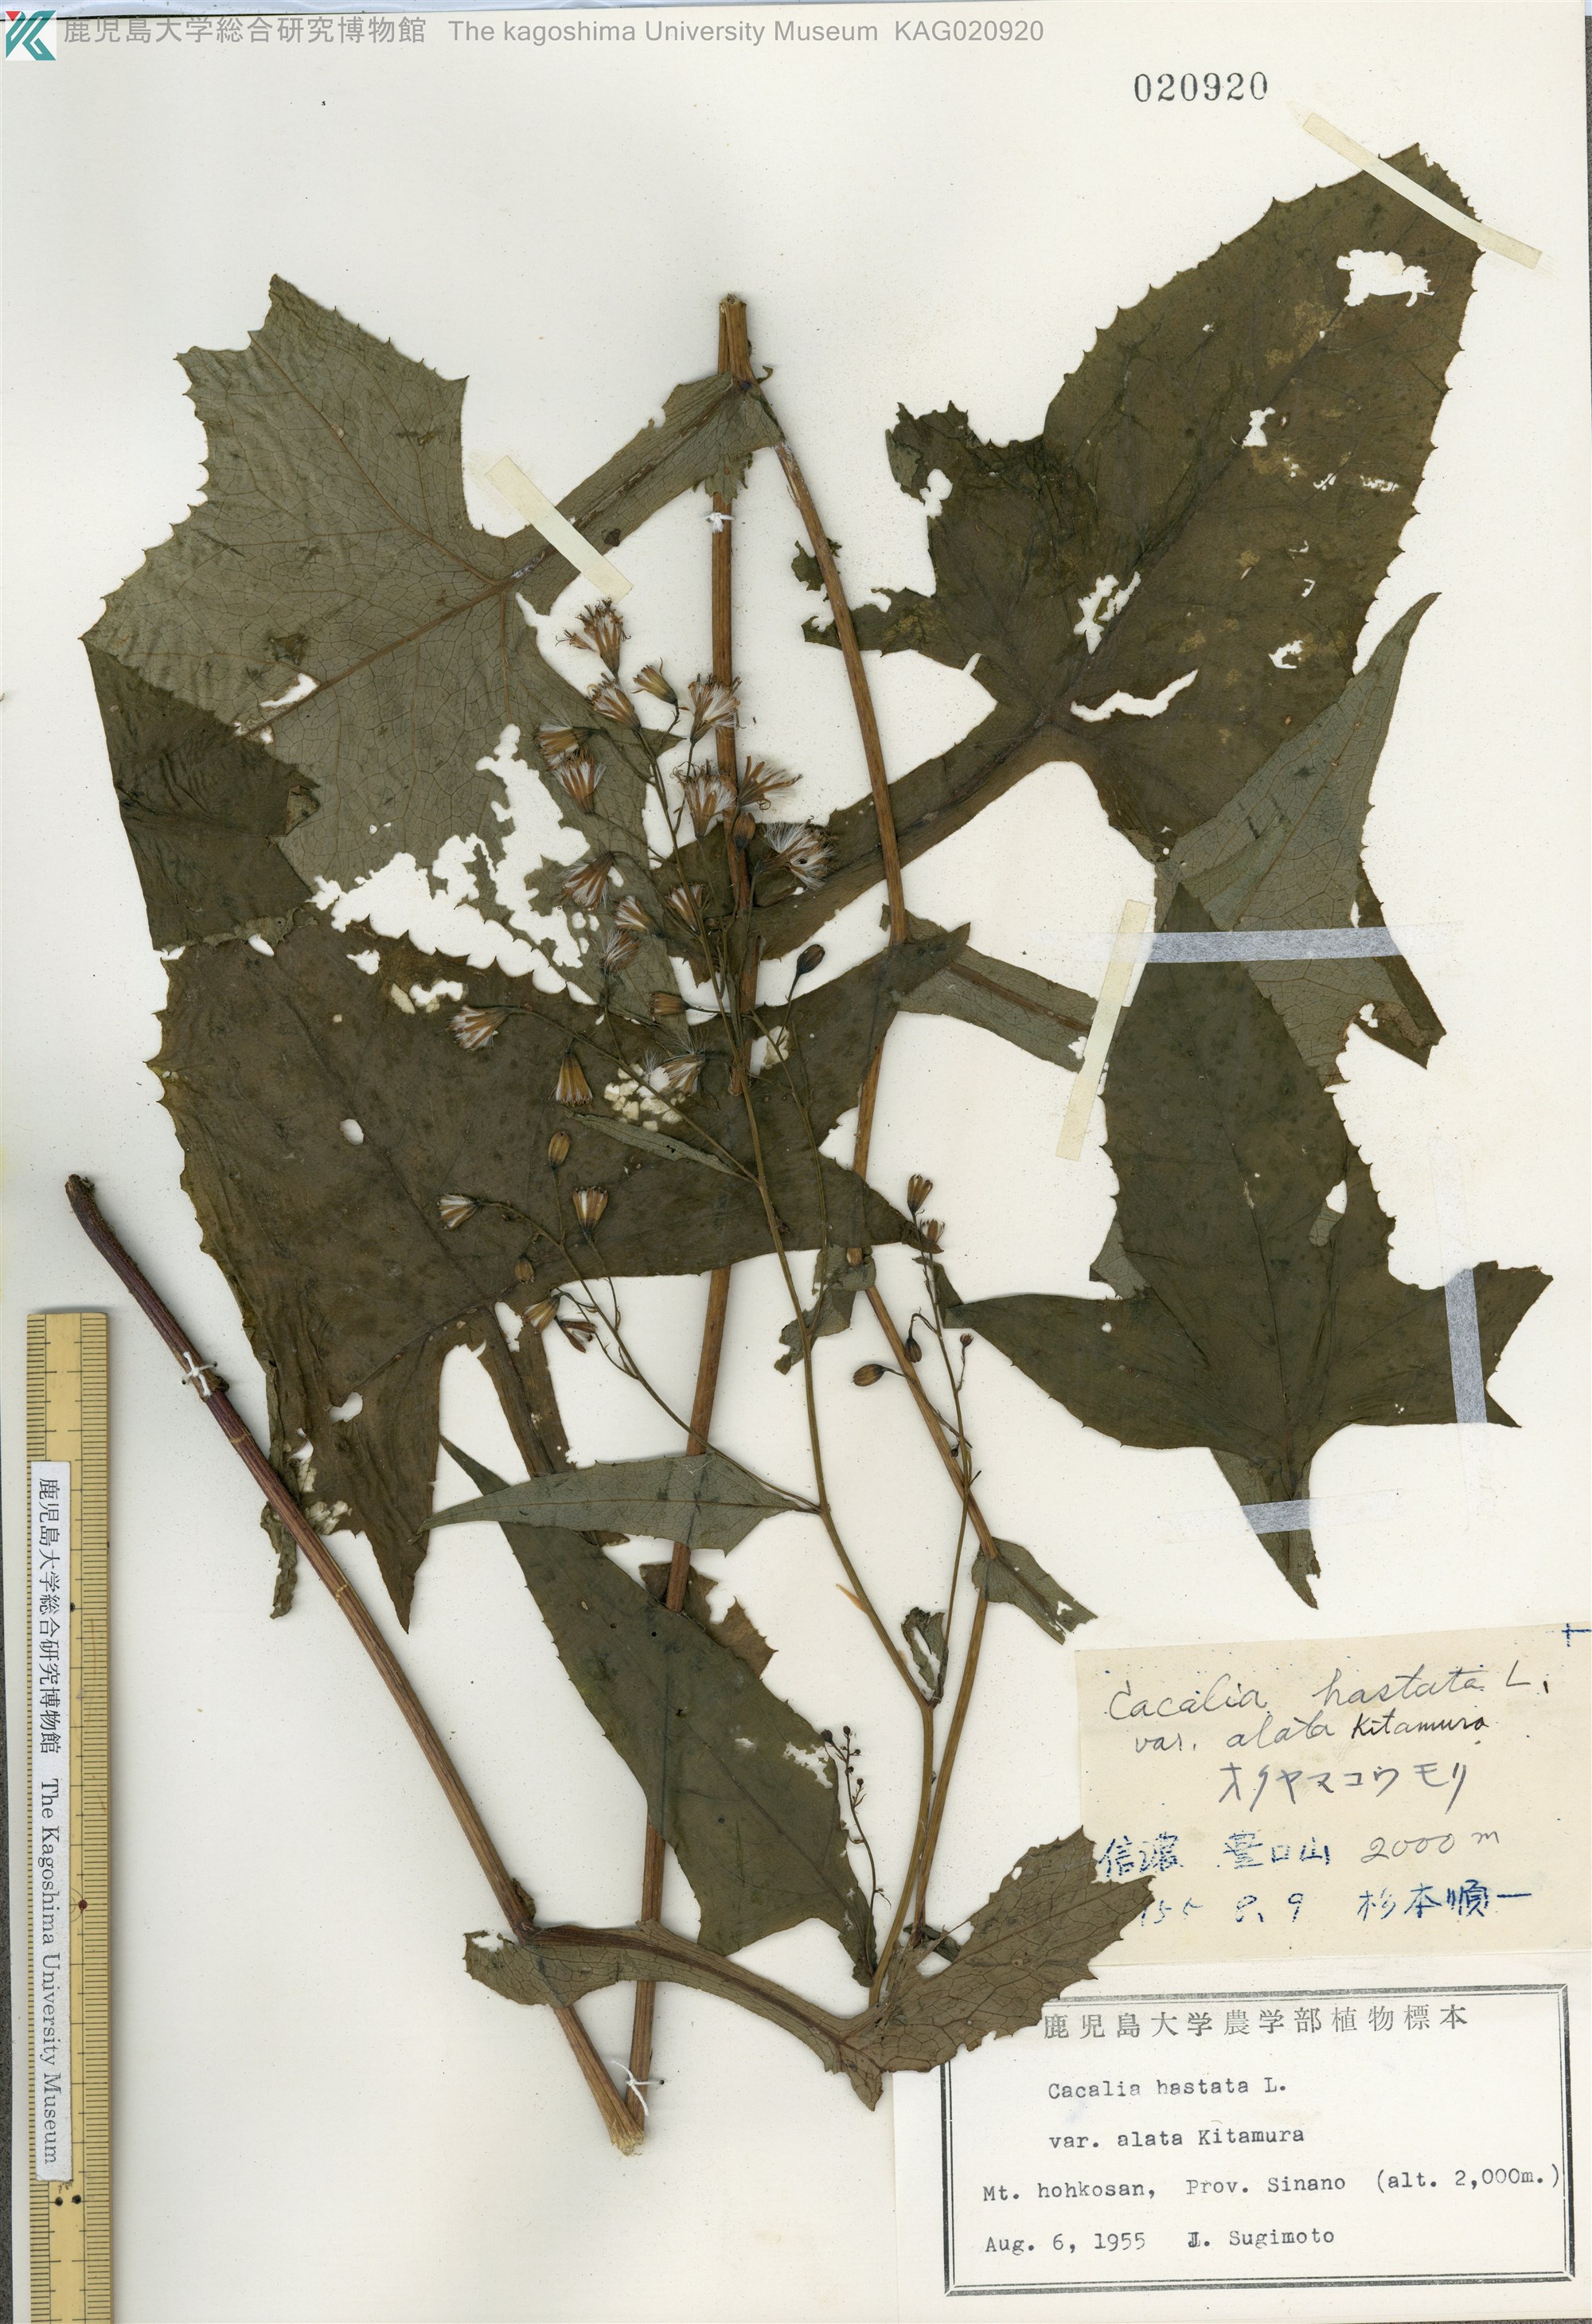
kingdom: Plantae
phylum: Tracheophyta
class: Magnoliopsida
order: Asterales
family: Asteraceae
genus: Parasenecio
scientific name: Parasenecio maximowicziana
